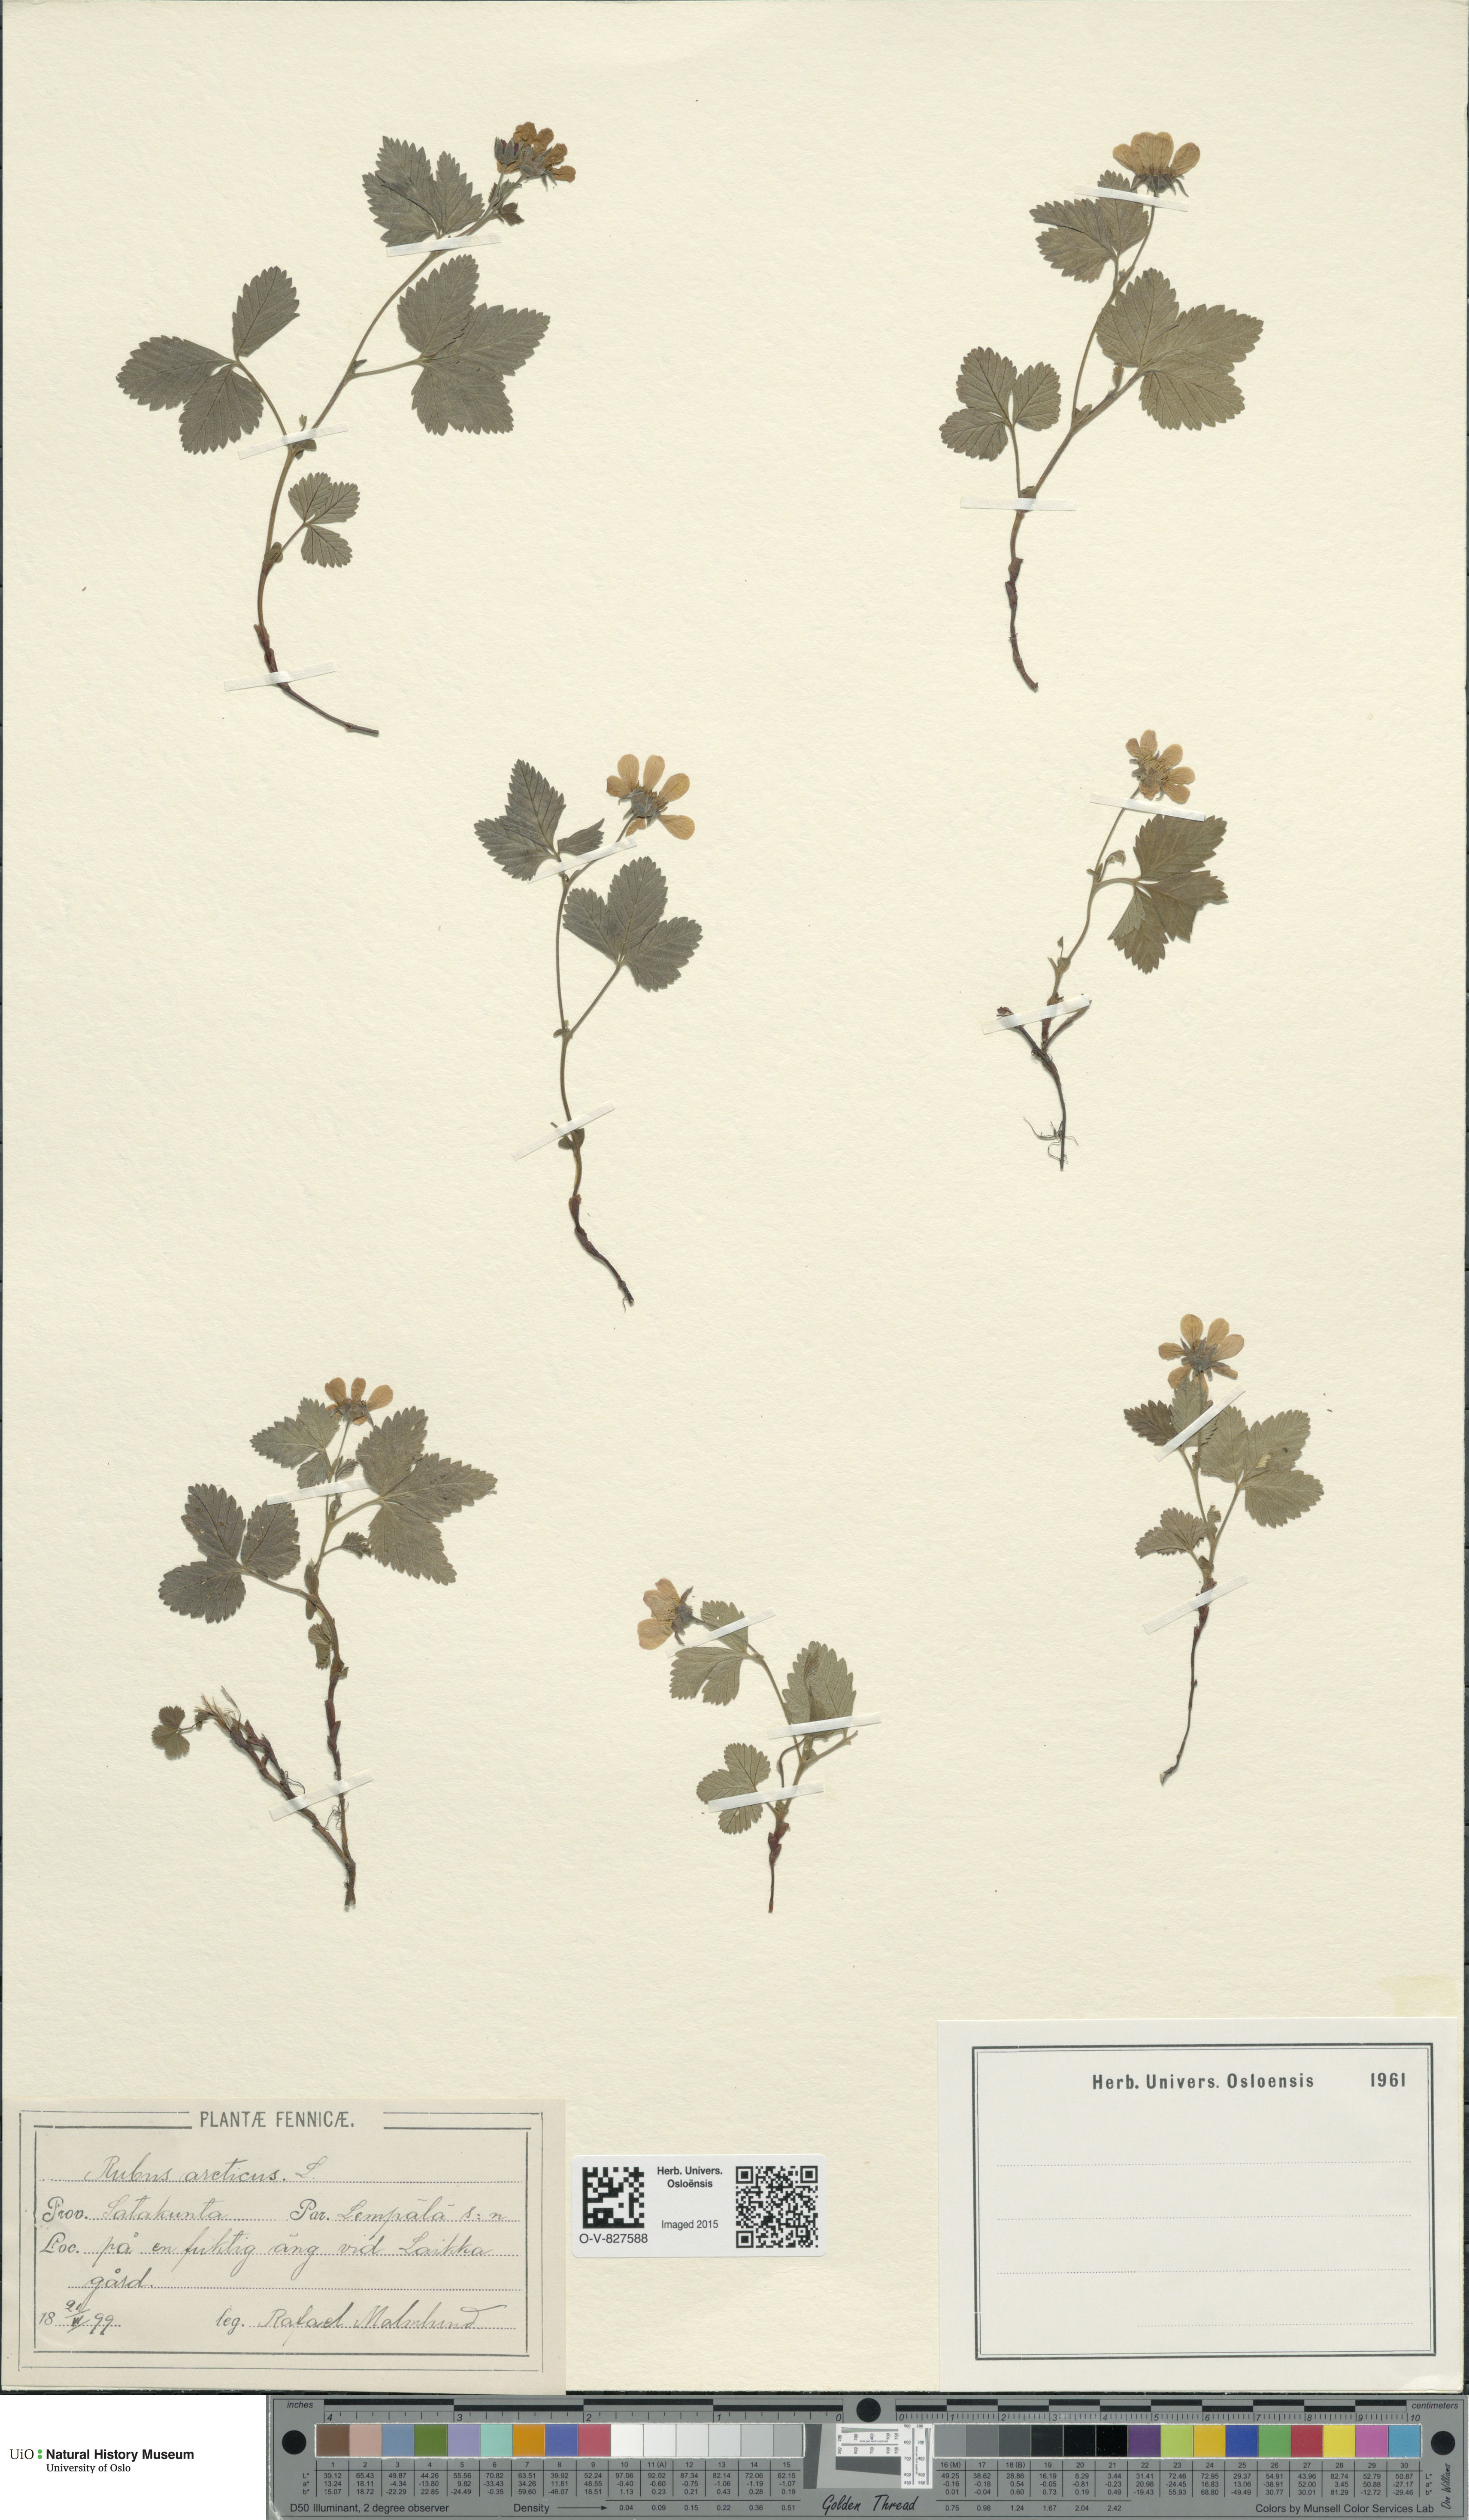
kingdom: Plantae
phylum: Tracheophyta
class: Magnoliopsida
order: Rosales
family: Rosaceae
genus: Rubus
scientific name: Rubus arcticus
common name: Arctic bramble
